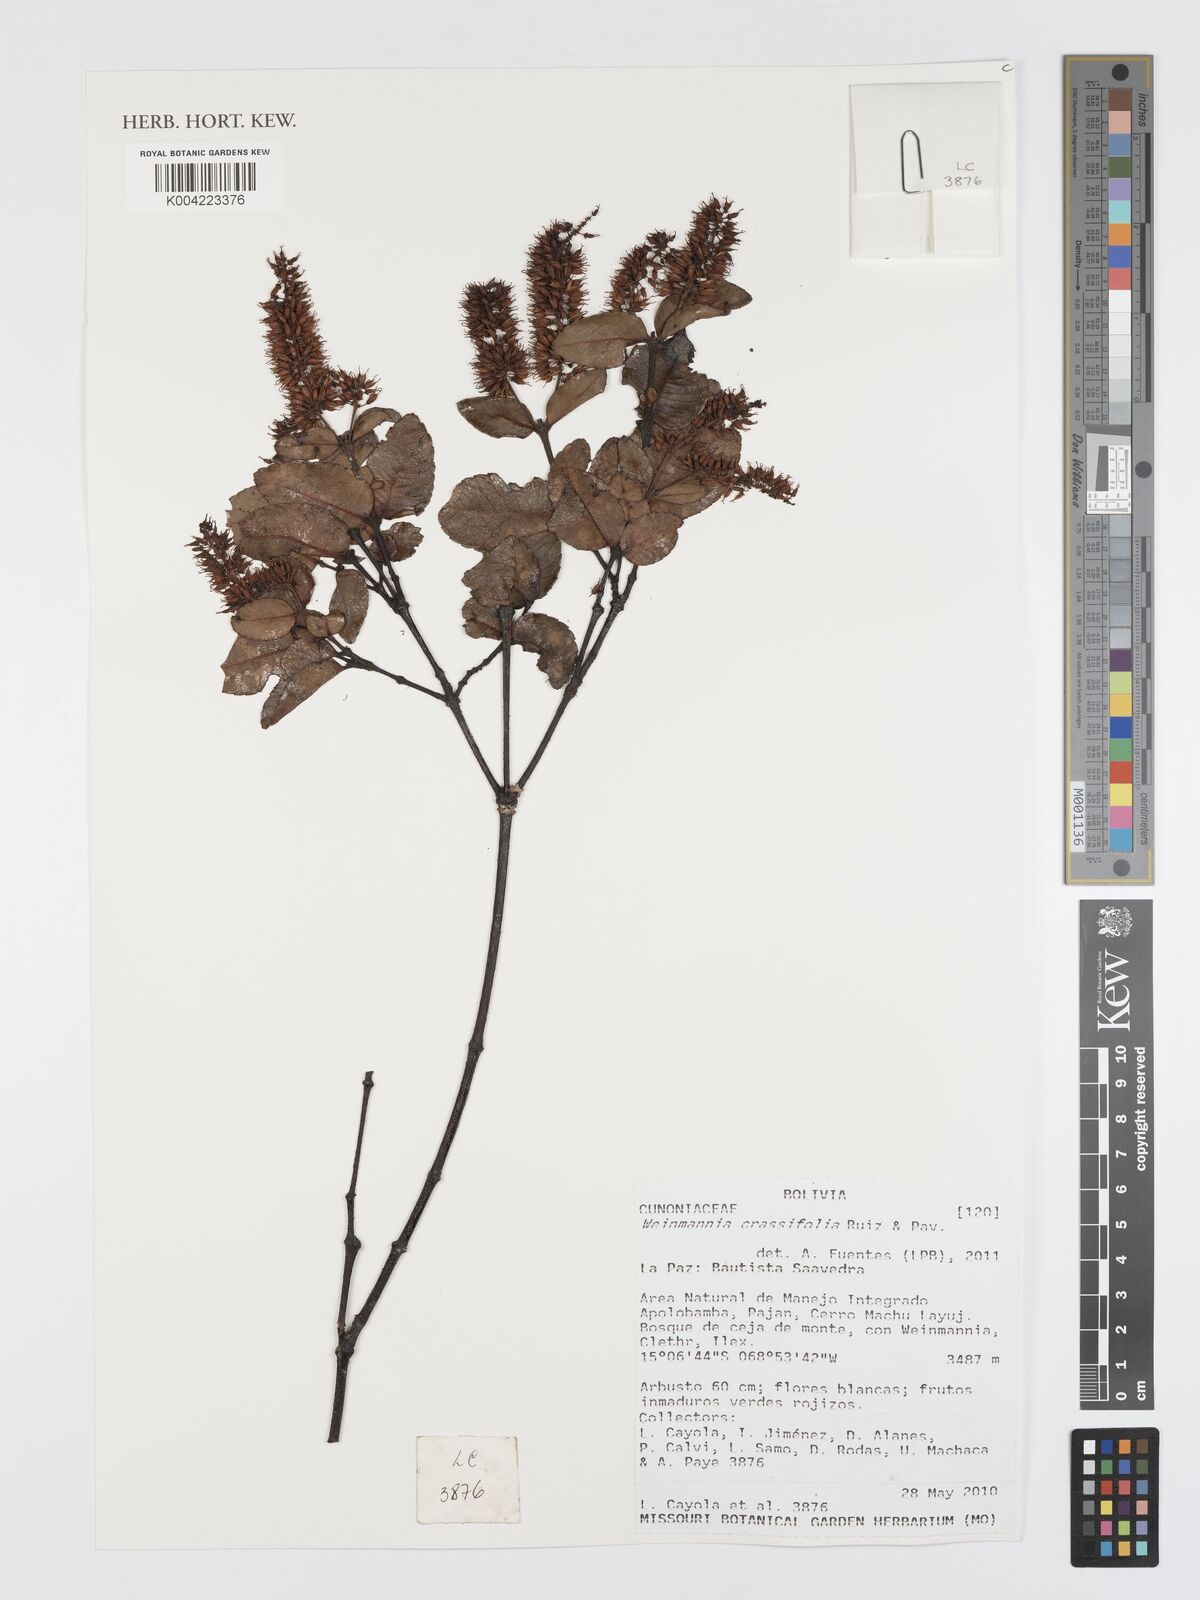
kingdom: Plantae
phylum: Tracheophyta
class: Magnoliopsida
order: Oxalidales
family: Cunoniaceae
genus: Weinmannia
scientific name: Weinmannia crassifolia
